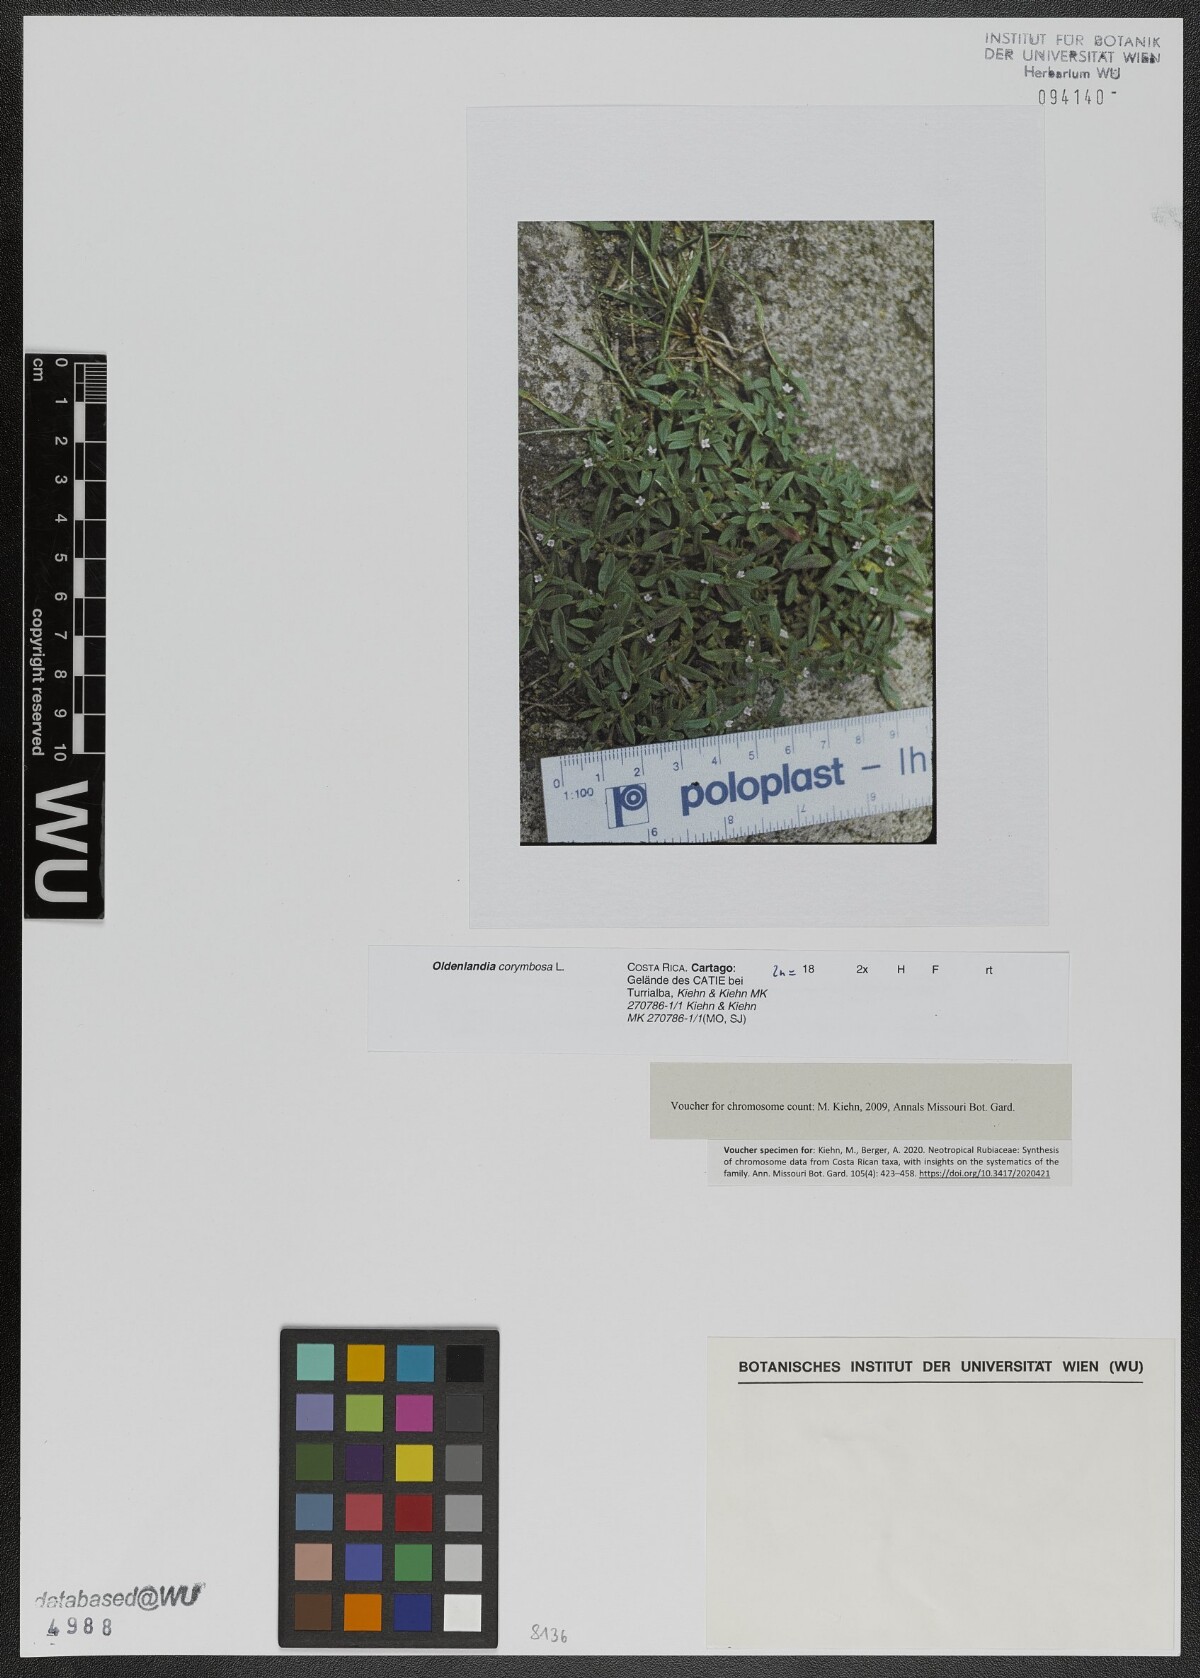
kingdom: Plantae
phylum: Tracheophyta
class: Magnoliopsida
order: Gentianales
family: Rubiaceae
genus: Oldenlandia
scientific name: Oldenlandia corymbosa
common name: Flat-top mille graines
